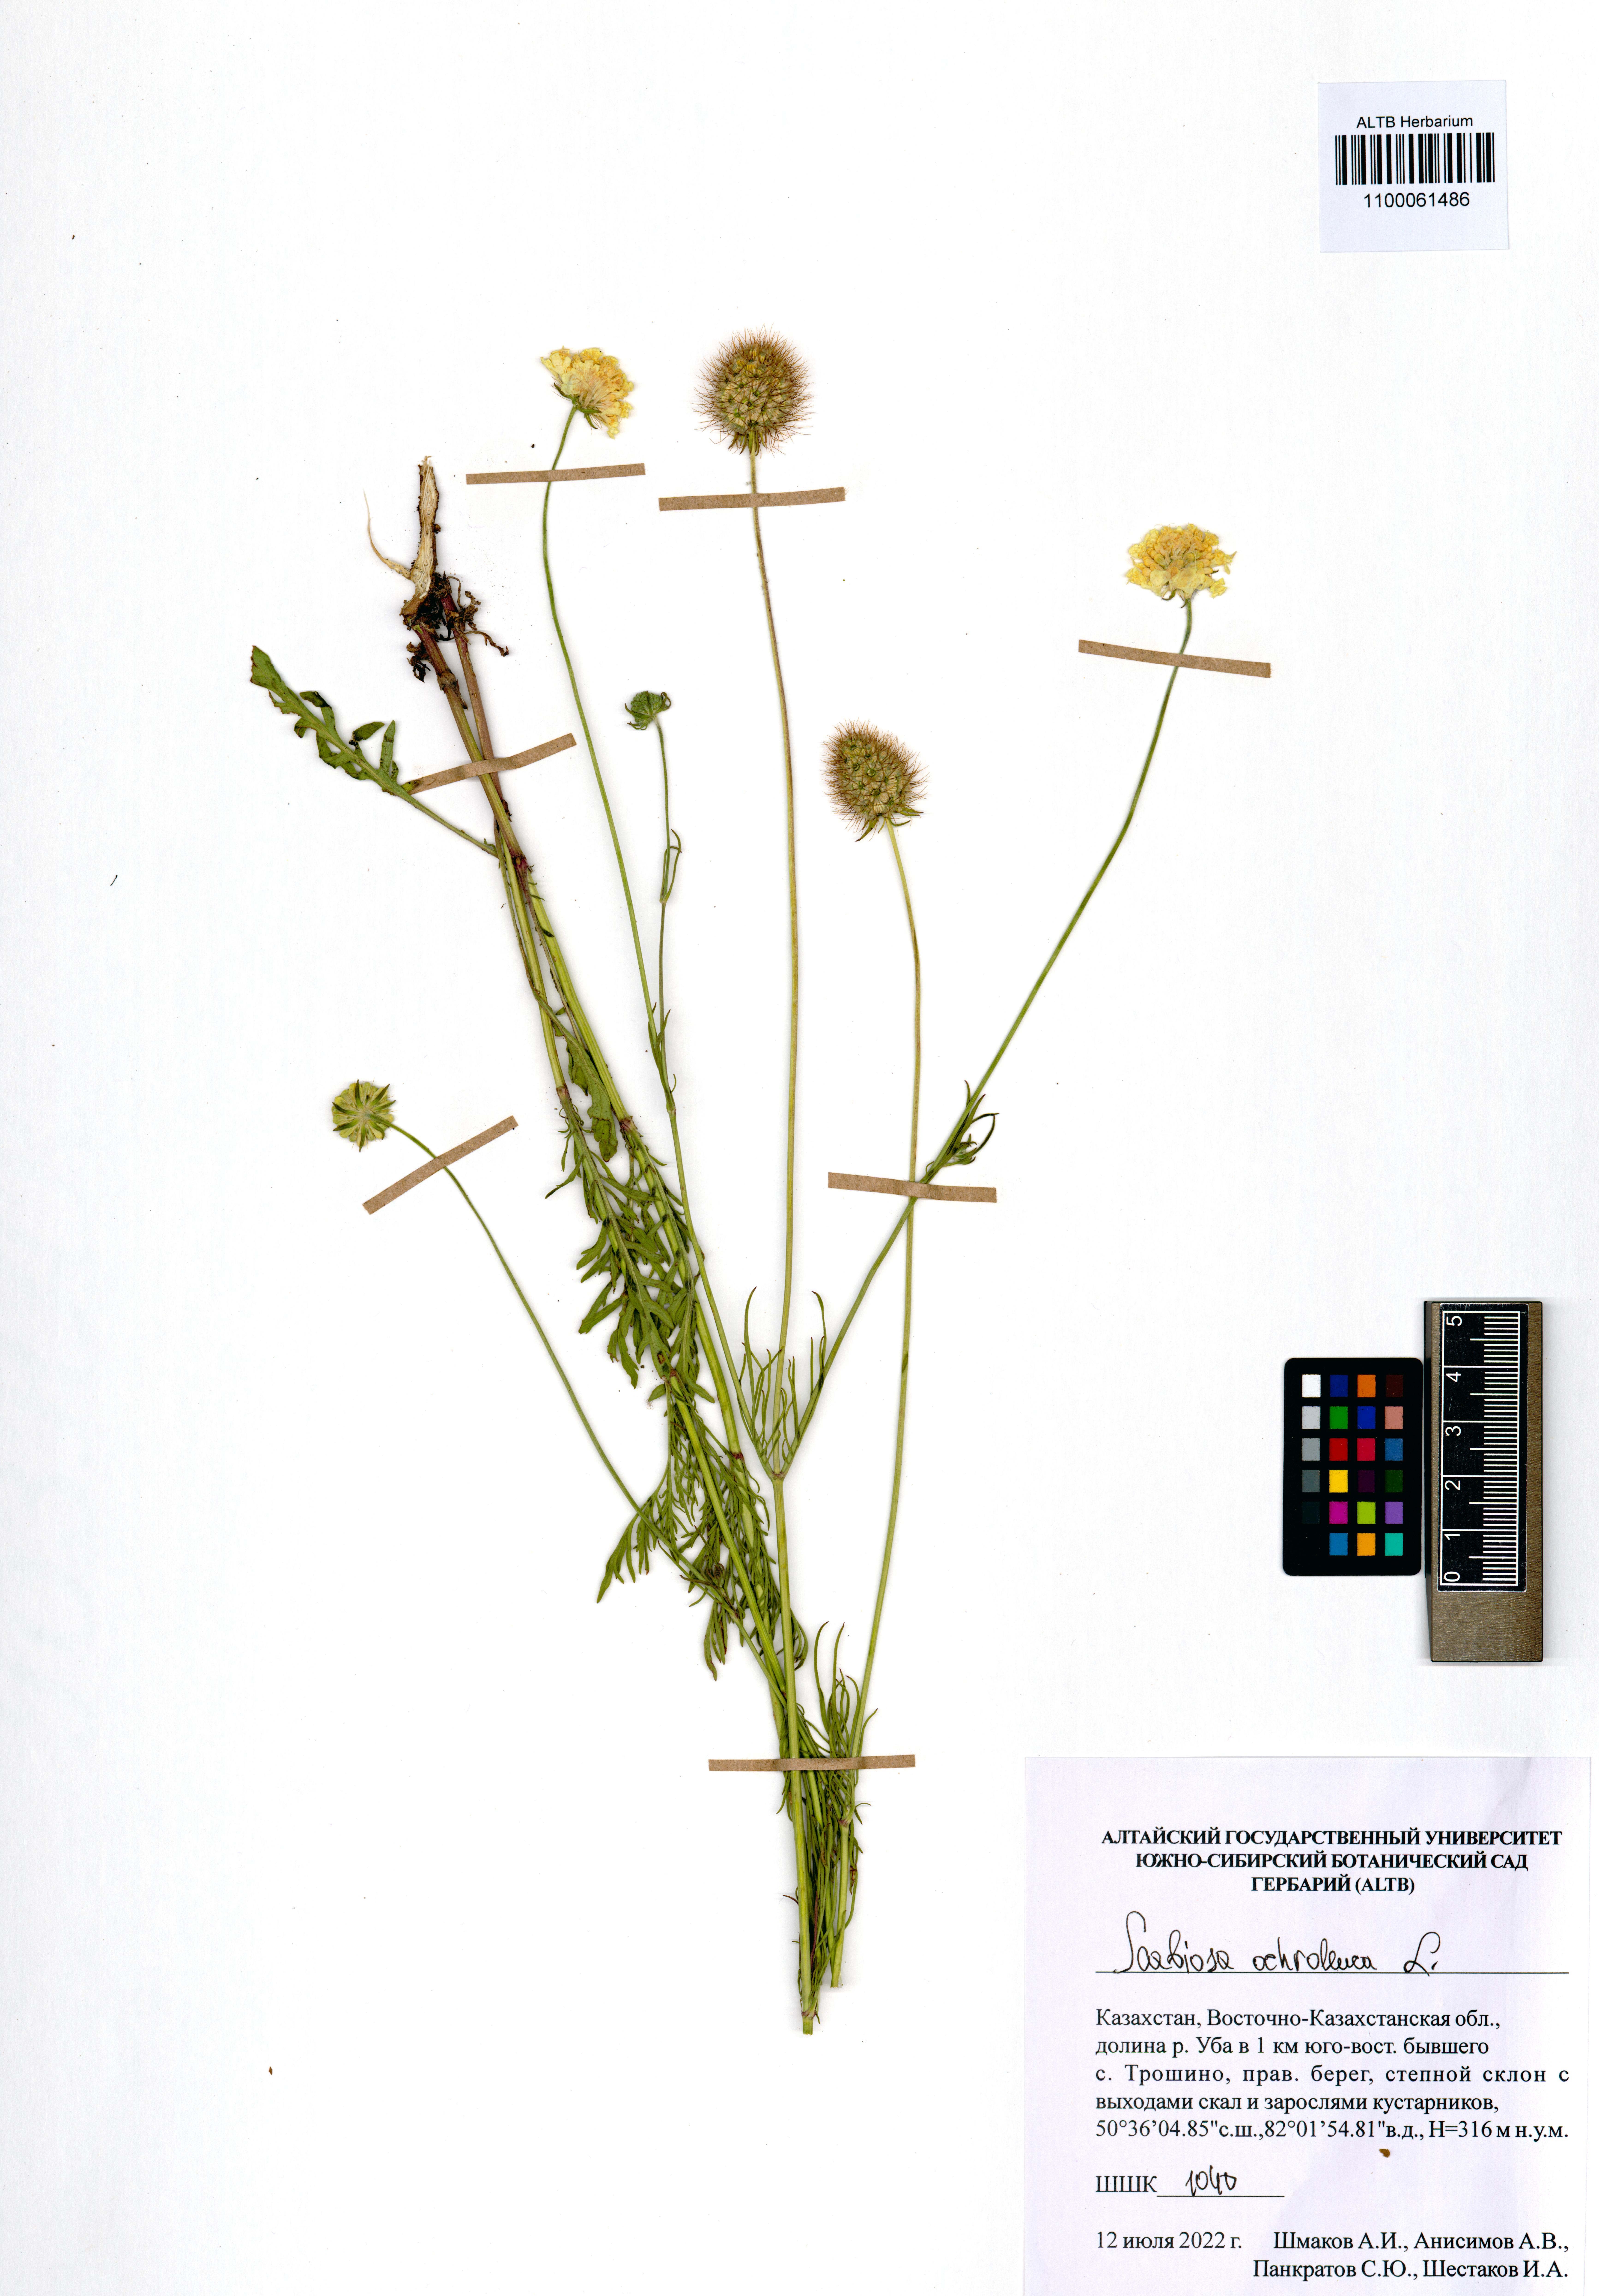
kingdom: Plantae
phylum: Tracheophyta
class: Magnoliopsida
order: Dipsacales
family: Caprifoliaceae
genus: Scabiosa
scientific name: Scabiosa ochroleuca
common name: Cream pincushions
